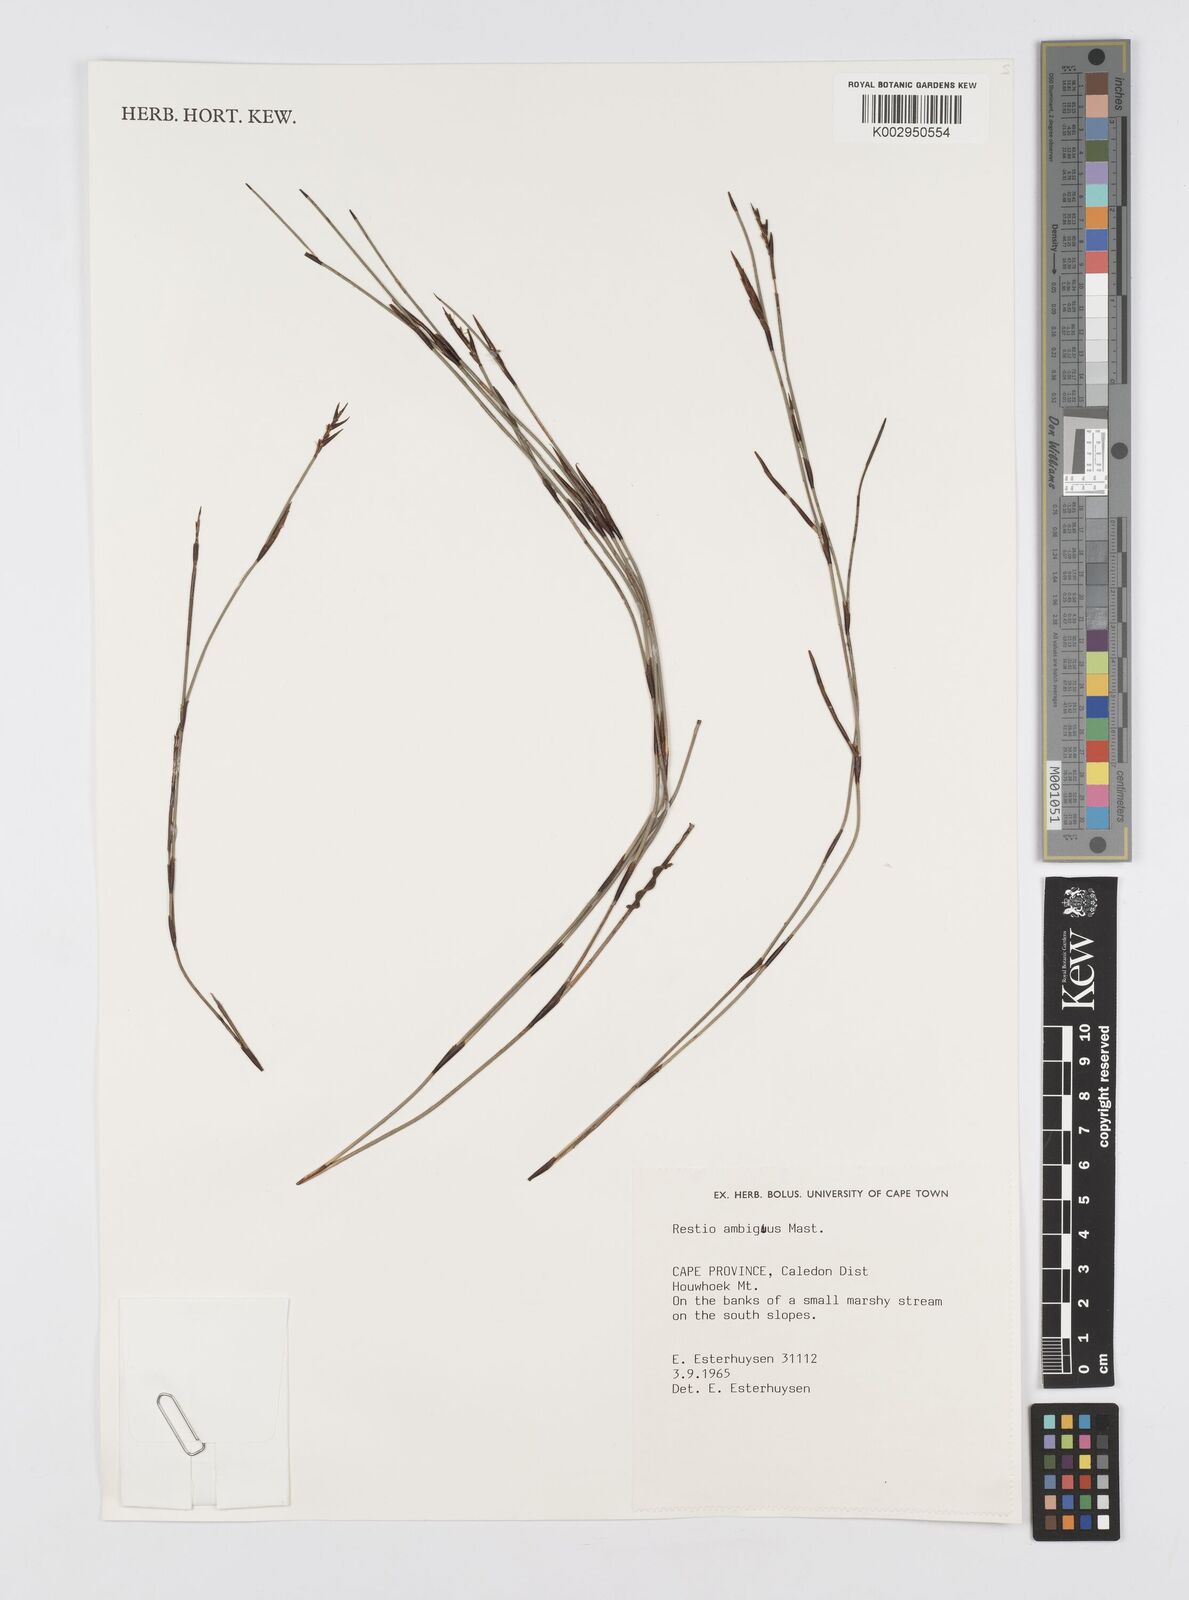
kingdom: Plantae
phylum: Tracheophyta
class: Liliopsida
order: Poales
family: Restionaceae
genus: Soroveta
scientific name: Soroveta ambigua
